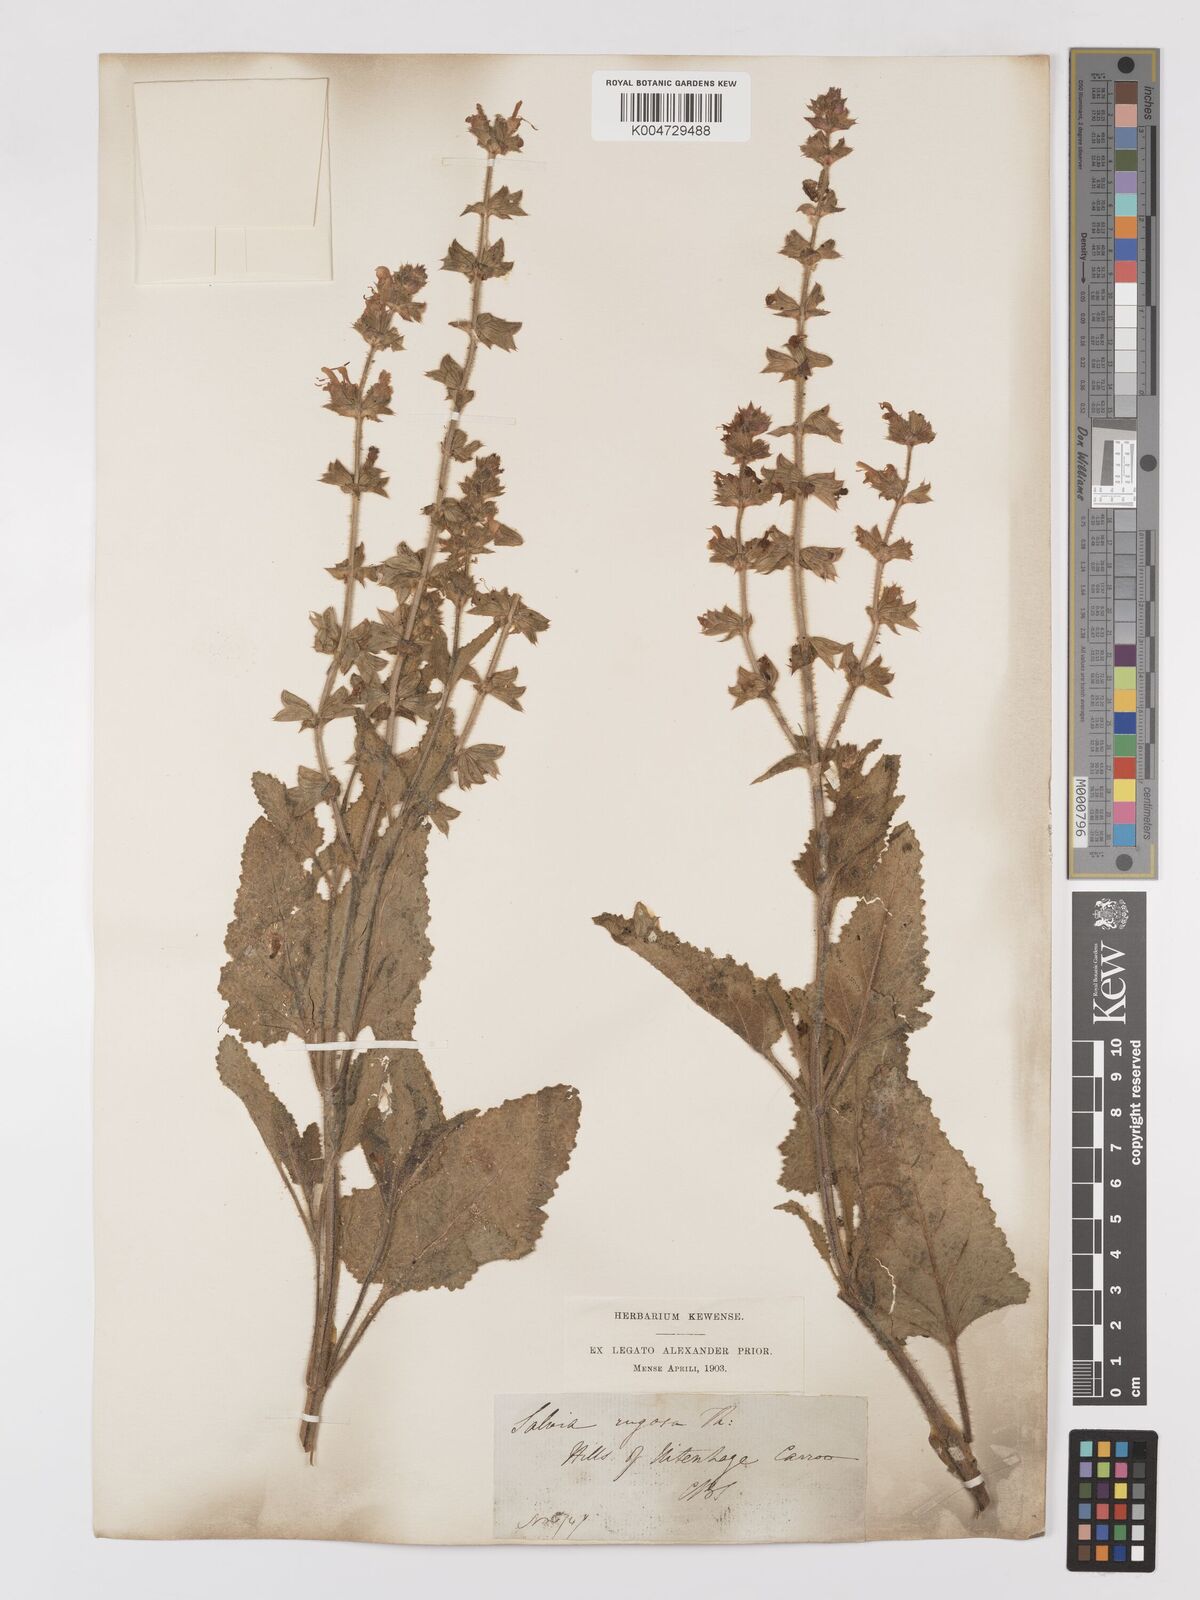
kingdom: Plantae
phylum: Tracheophyta
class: Magnoliopsida
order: Lamiales
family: Lamiaceae
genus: Salvia
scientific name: Salvia
